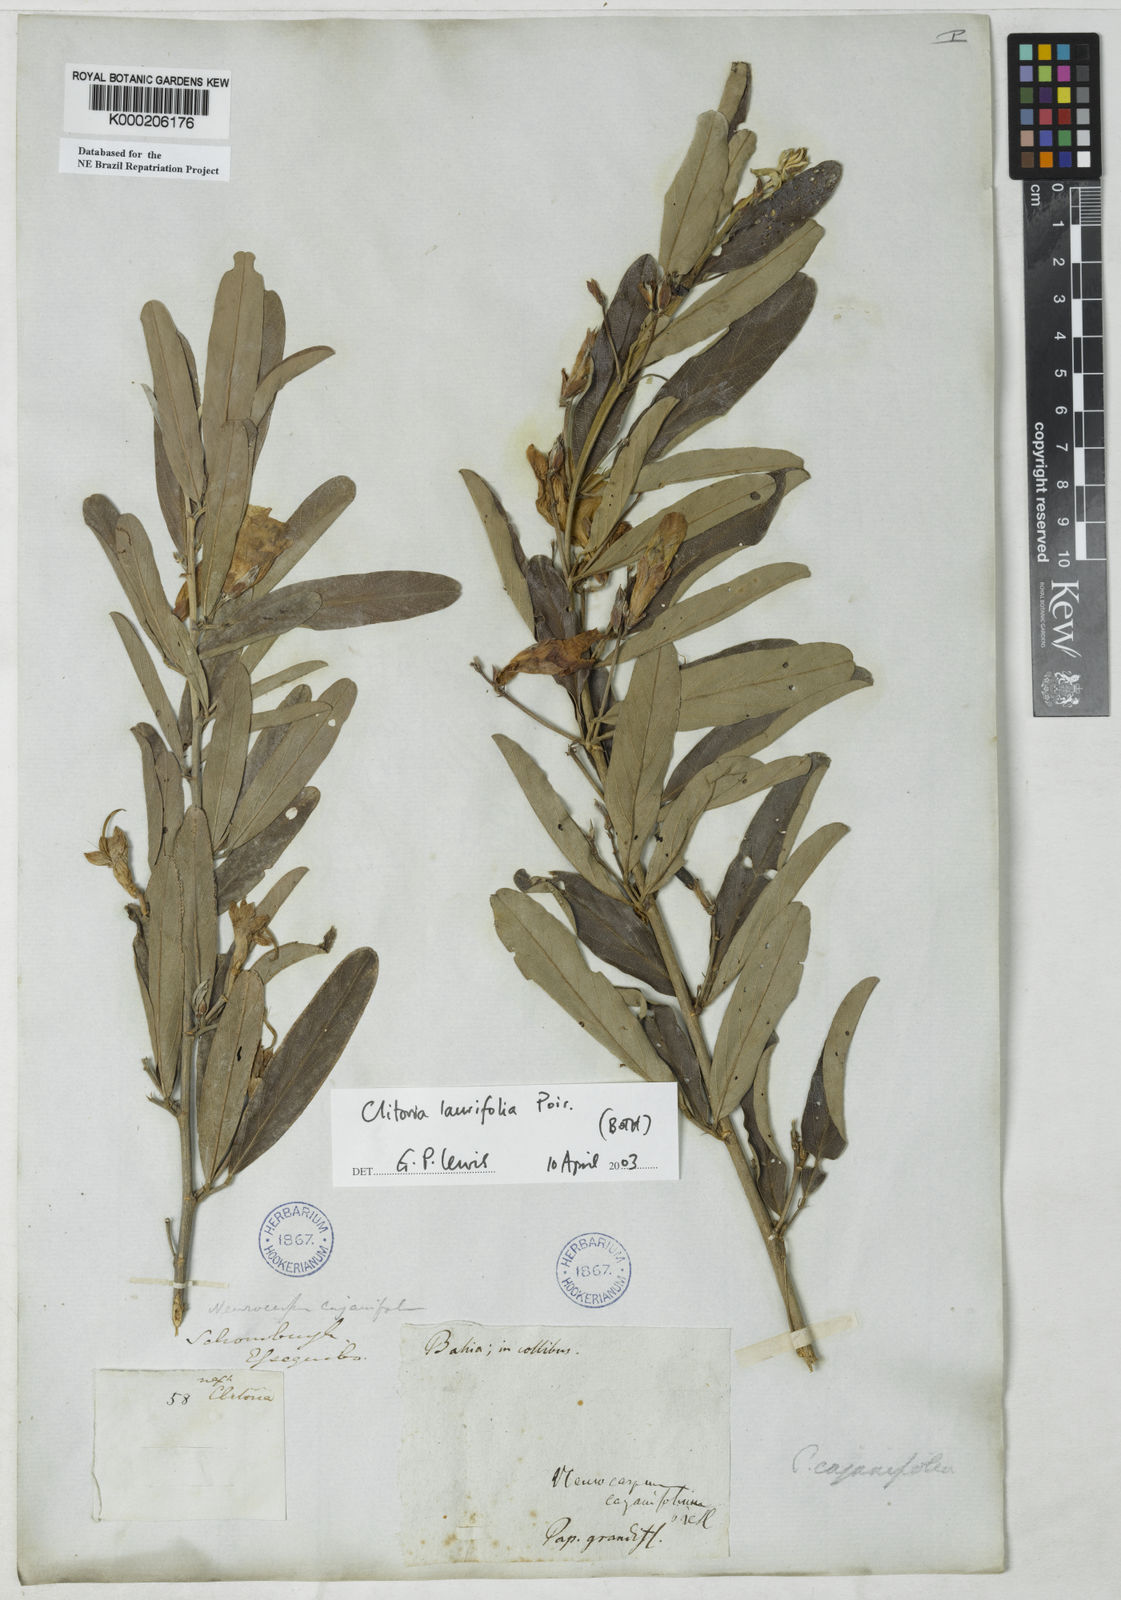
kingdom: Plantae
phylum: Tracheophyta
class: Magnoliopsida
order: Fabales
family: Fabaceae
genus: Clitoria
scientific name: Clitoria laurifolia
